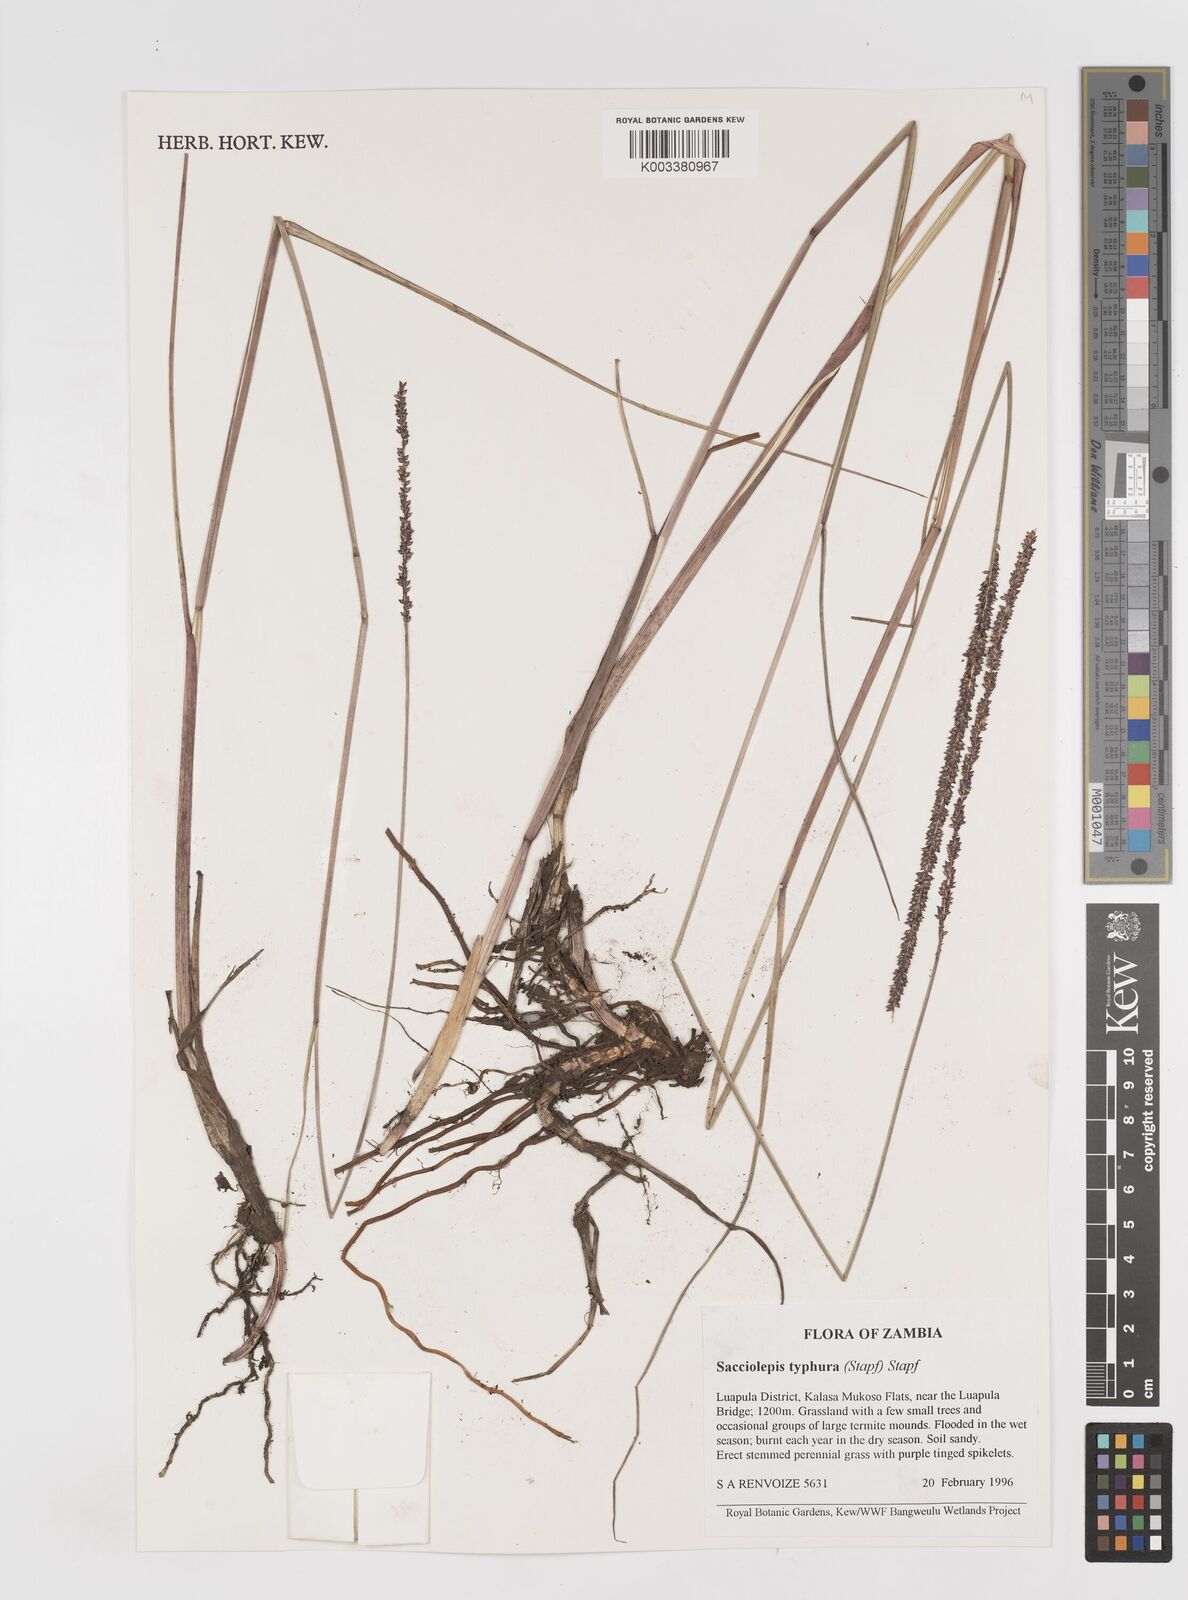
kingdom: Plantae
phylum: Tracheophyta
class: Liliopsida
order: Poales
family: Poaceae
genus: Sacciolepis
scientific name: Sacciolepis typhura
